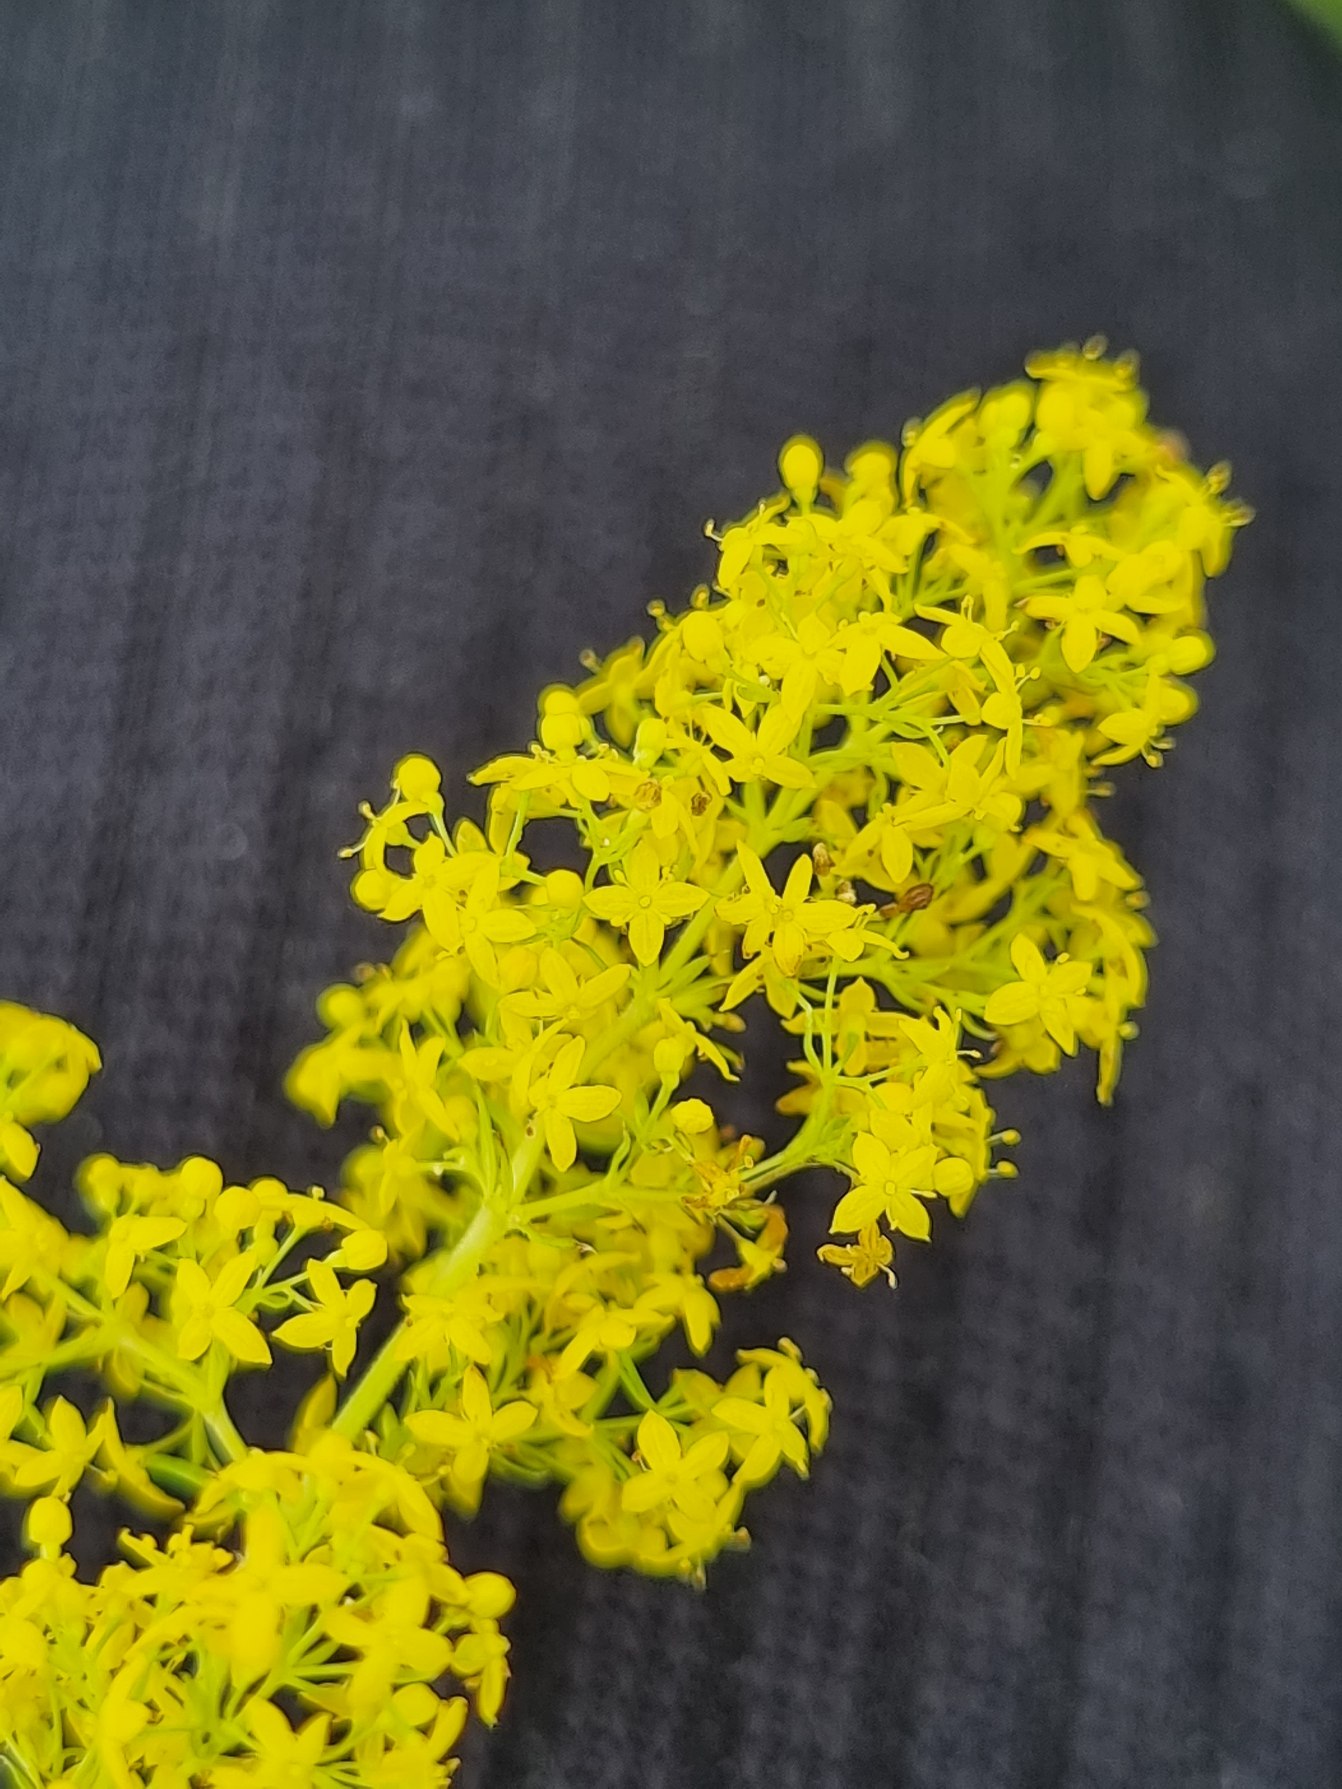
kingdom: Plantae
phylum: Tracheophyta
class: Magnoliopsida
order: Gentianales
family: Rubiaceae
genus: Galium
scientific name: Galium verum
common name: Gul snerre
